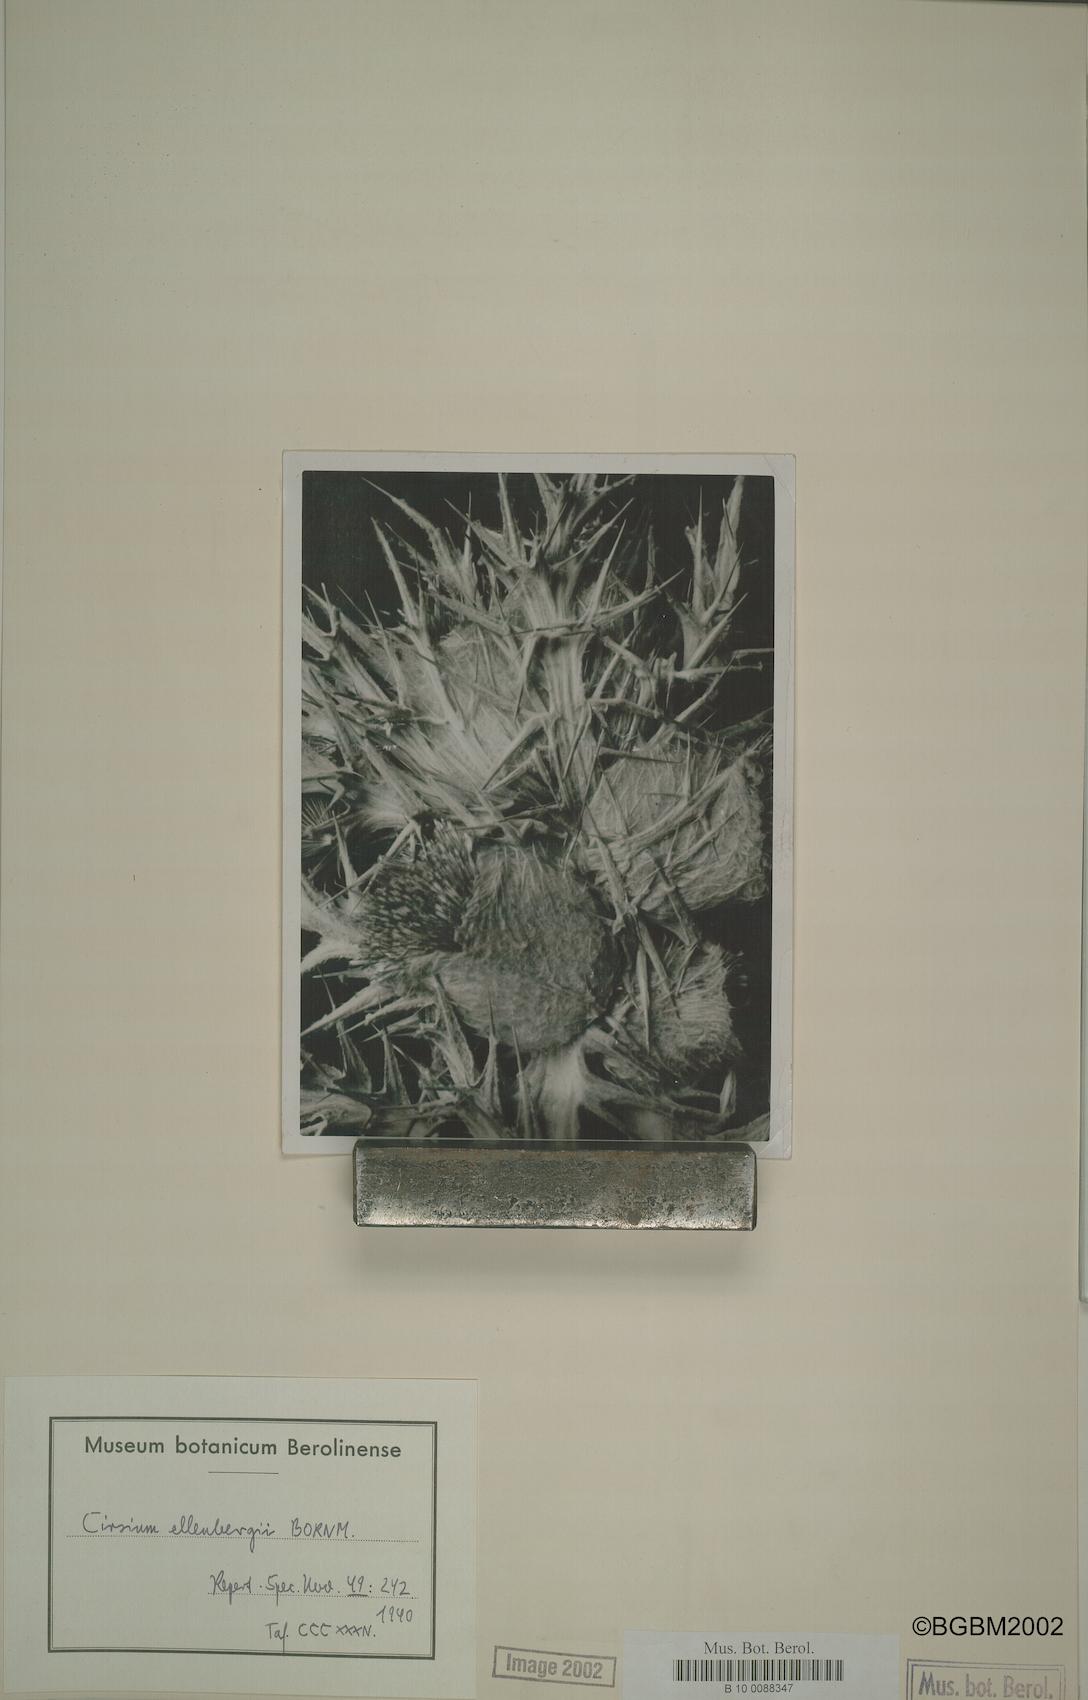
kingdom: Plantae
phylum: Tracheophyta
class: Magnoliopsida
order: Asterales
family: Asteraceae
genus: Lophiolepis
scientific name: Lophiolepis ellenbergii
